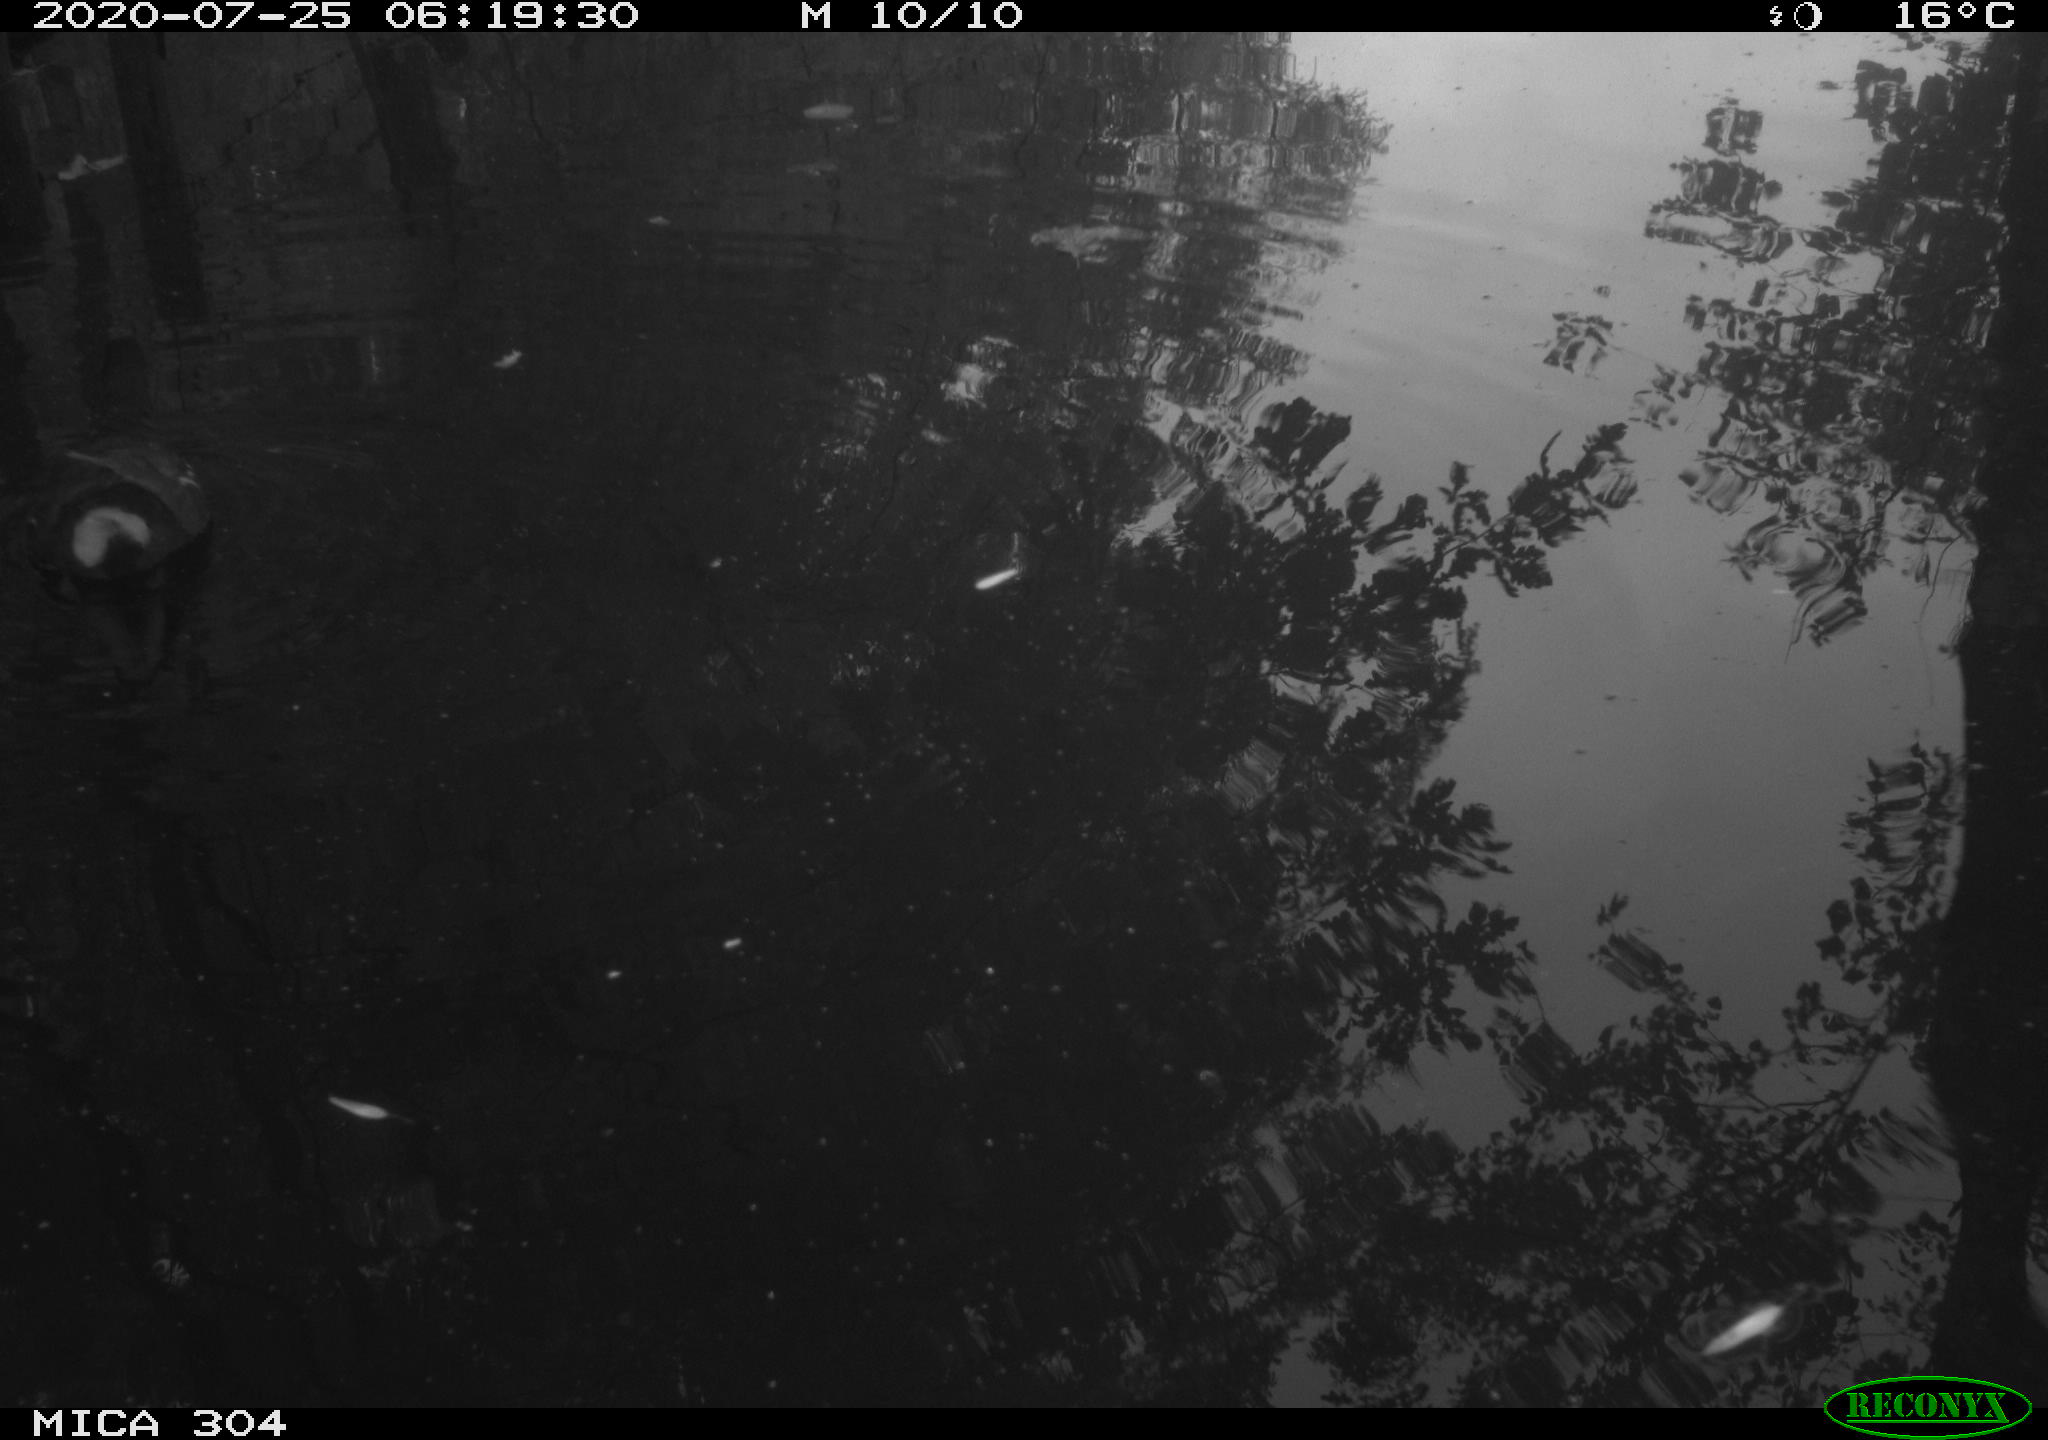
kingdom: Animalia
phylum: Chordata
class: Aves
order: Gruiformes
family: Rallidae
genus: Gallinula
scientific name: Gallinula chloropus
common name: Common moorhen
